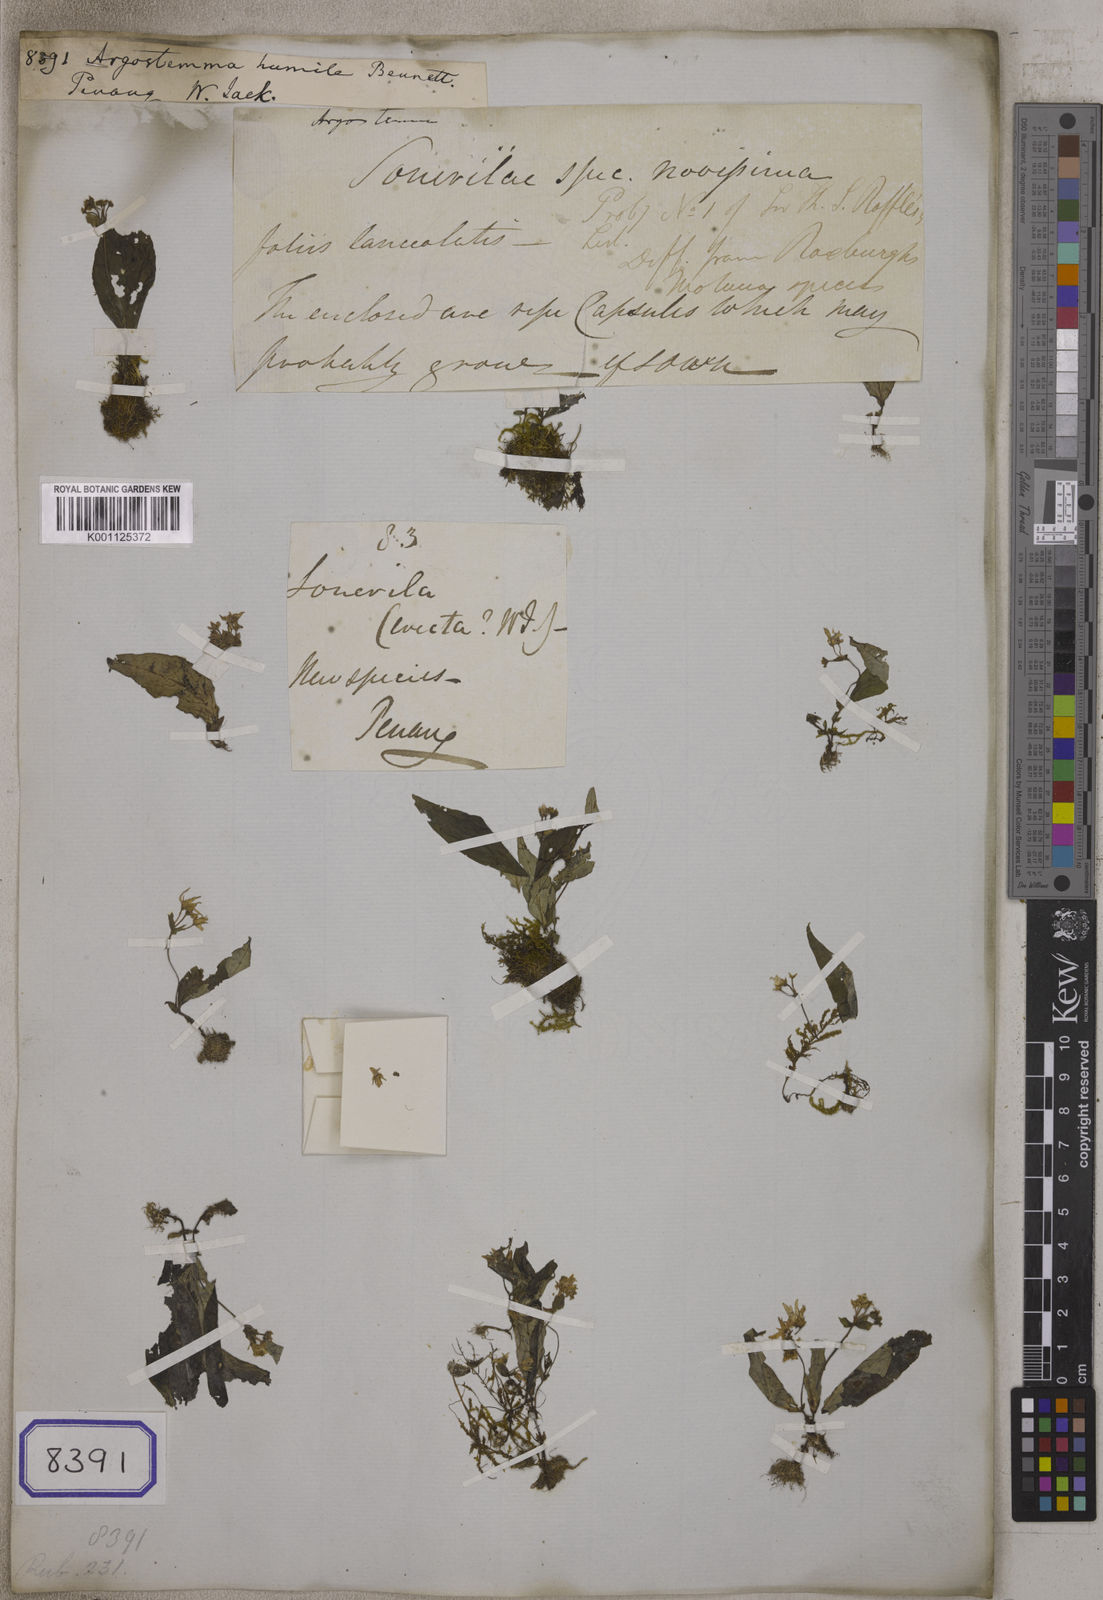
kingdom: Plantae
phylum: Tracheophyta
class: Magnoliopsida
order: Gentianales
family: Rubiaceae
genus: Argostemma
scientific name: Argostemma humile
